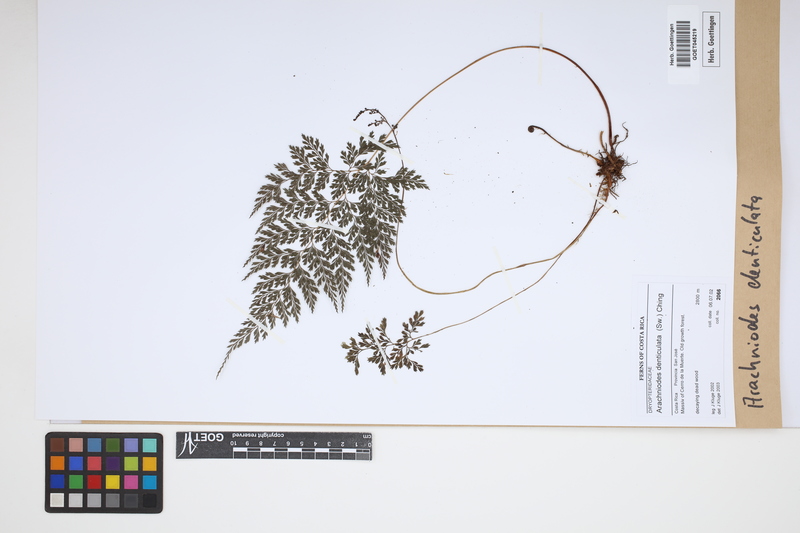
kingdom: Plantae
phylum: Tracheophyta
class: Polypodiopsida
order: Polypodiales
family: Dryopteridaceae
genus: Arachniodes
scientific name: Arachniodes denticulata
